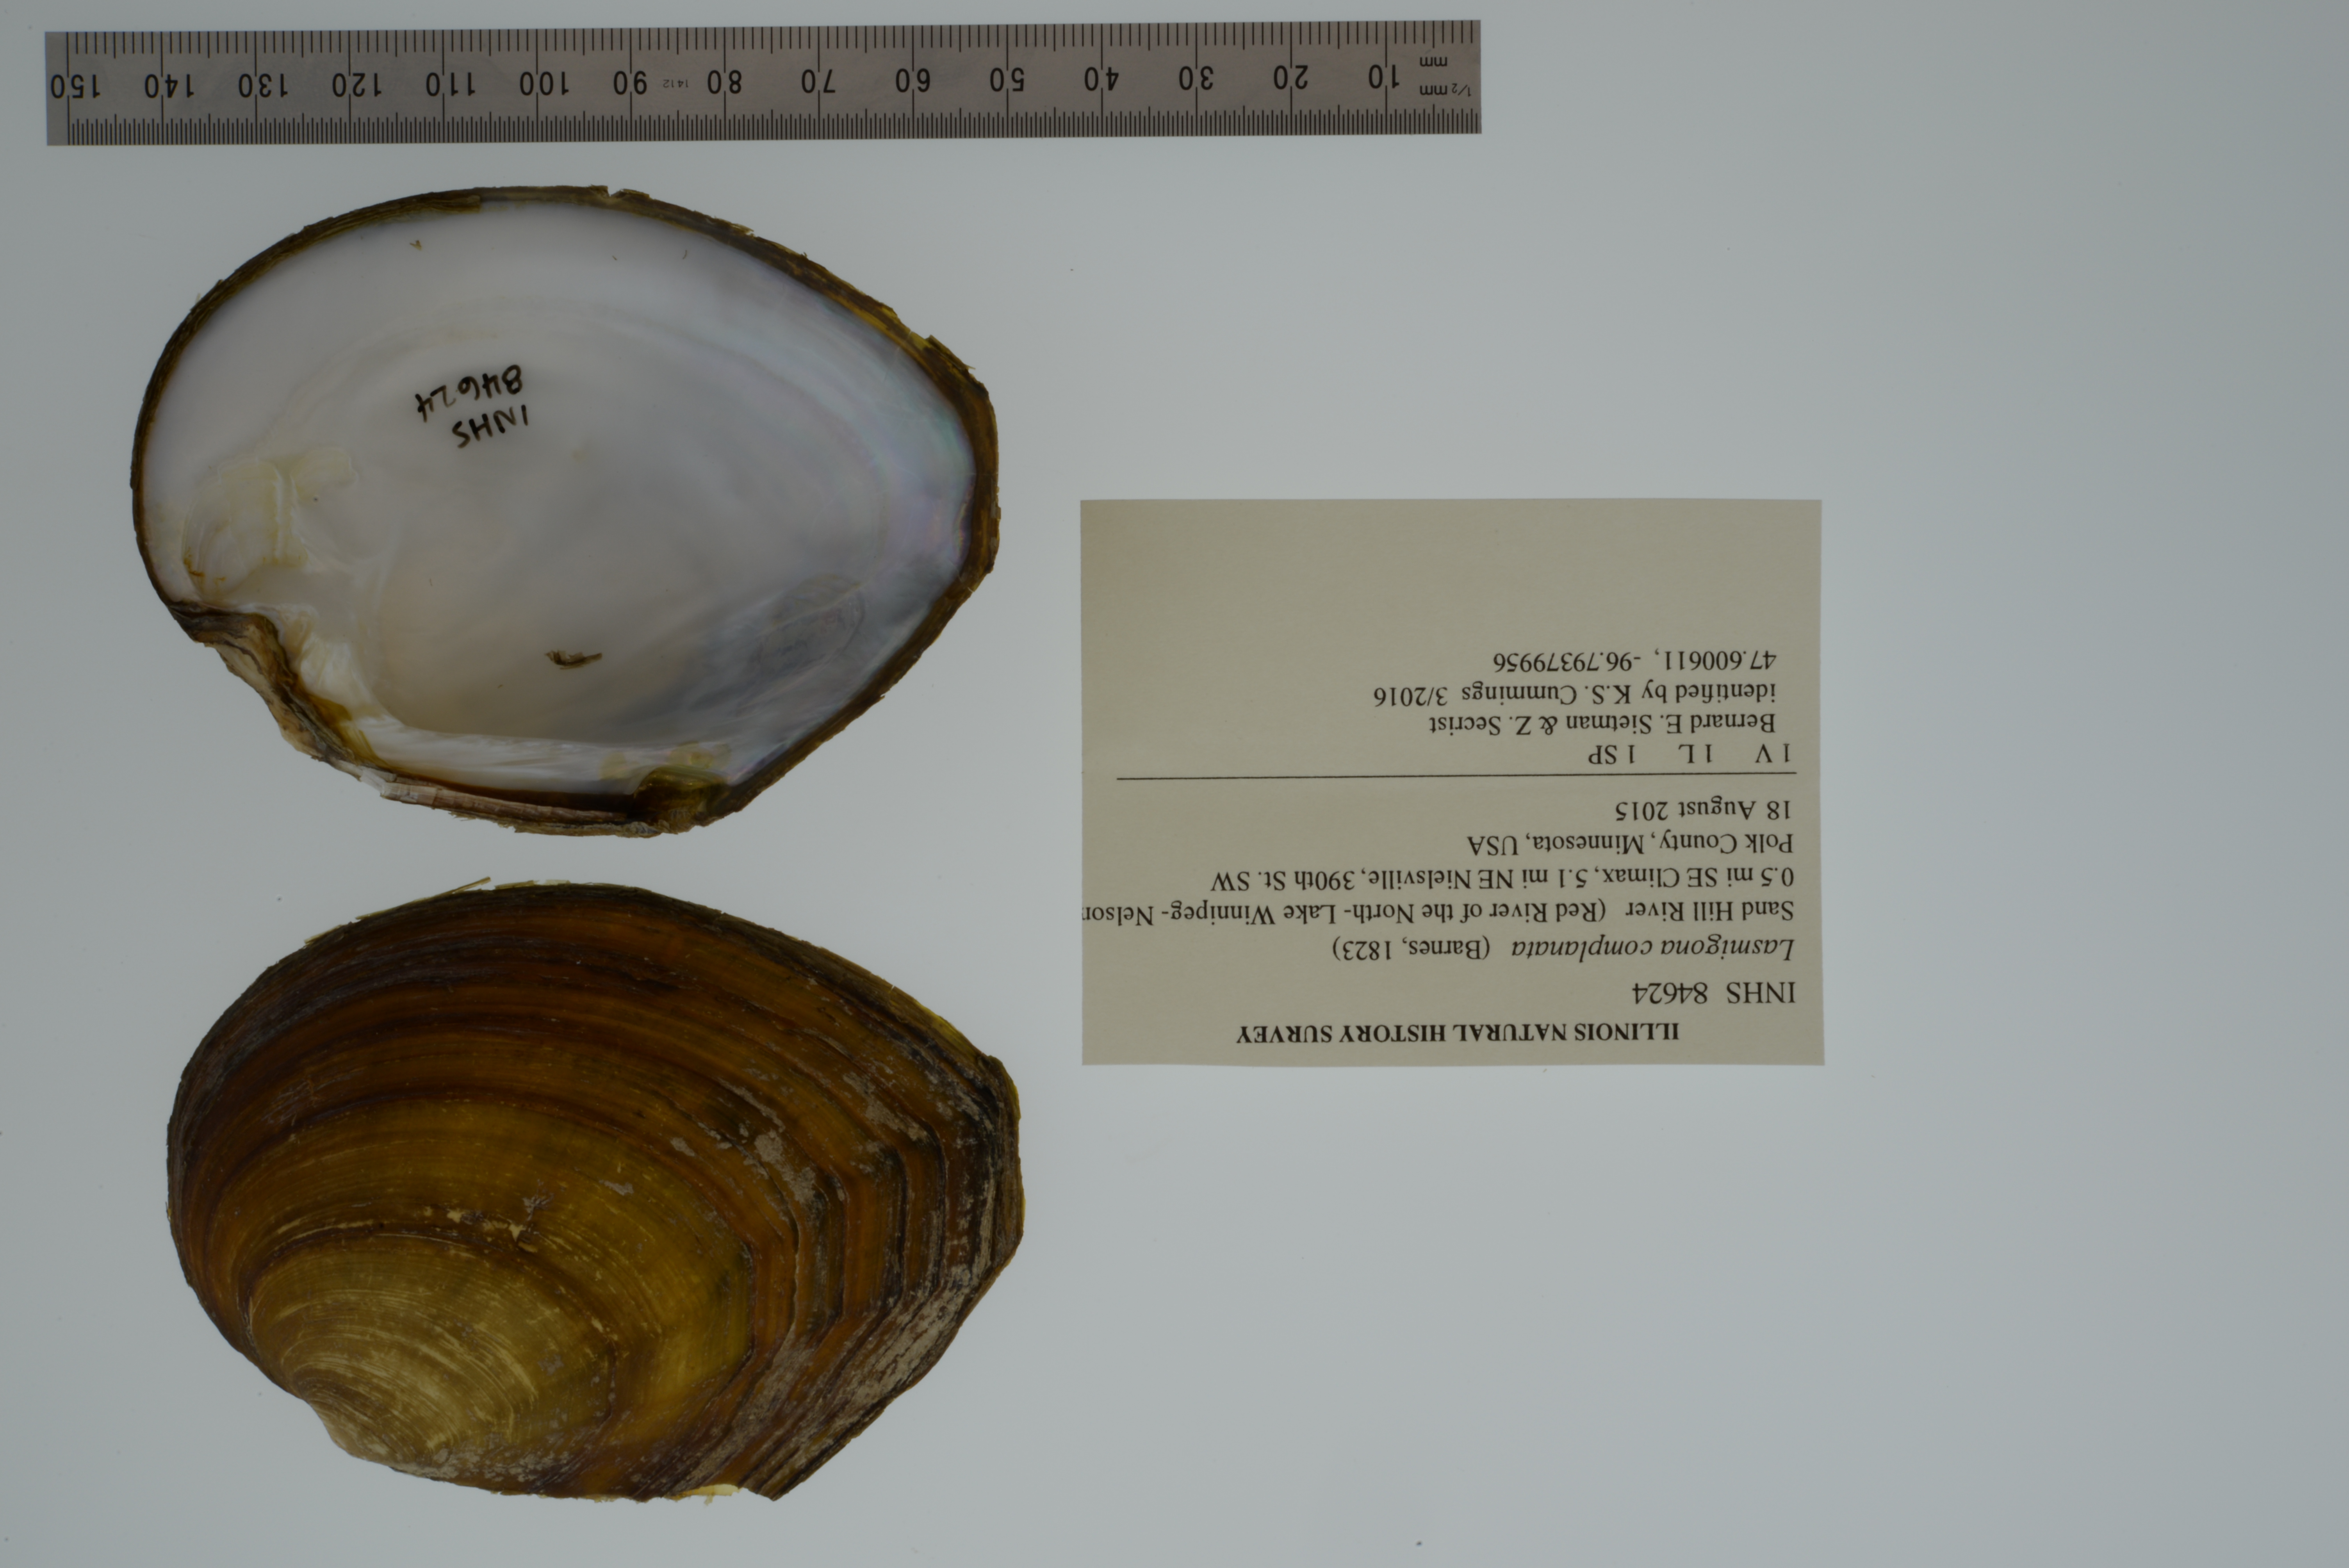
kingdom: Animalia
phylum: Mollusca
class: Bivalvia
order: Unionida
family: Unionidae
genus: Lasmigona
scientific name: Lasmigona complanata
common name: White heelsplitter
